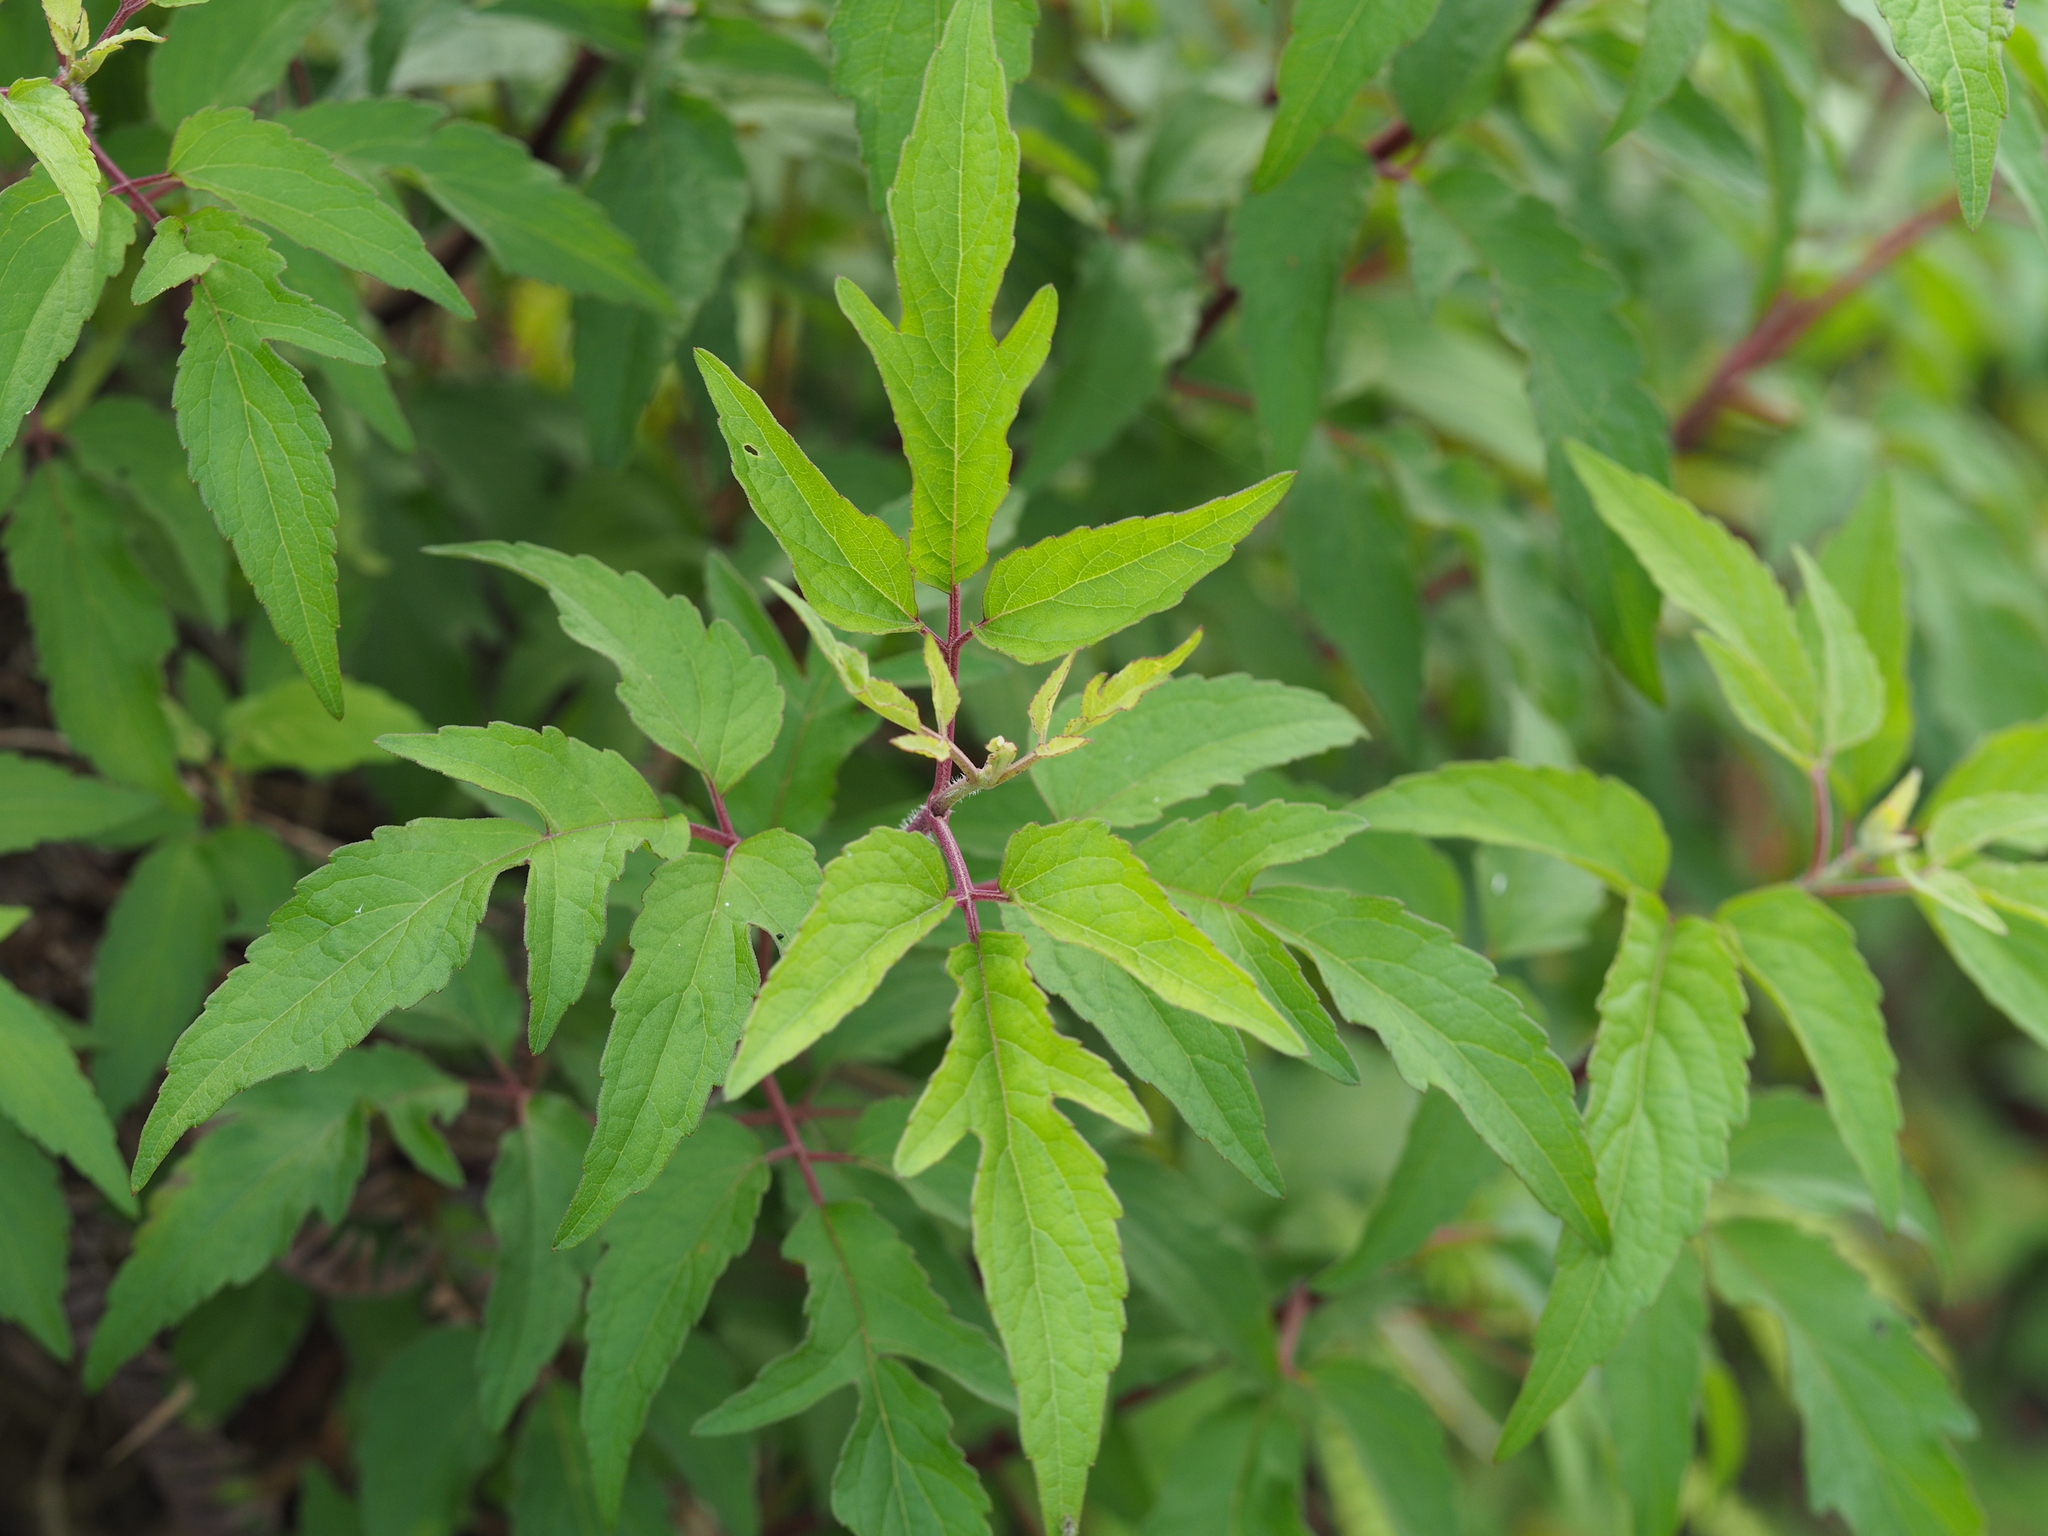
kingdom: Plantae
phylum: Tracheophyta
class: Magnoliopsida
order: Asterales
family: Asteraceae
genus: Eupatorium
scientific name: Eupatorium formosanum
